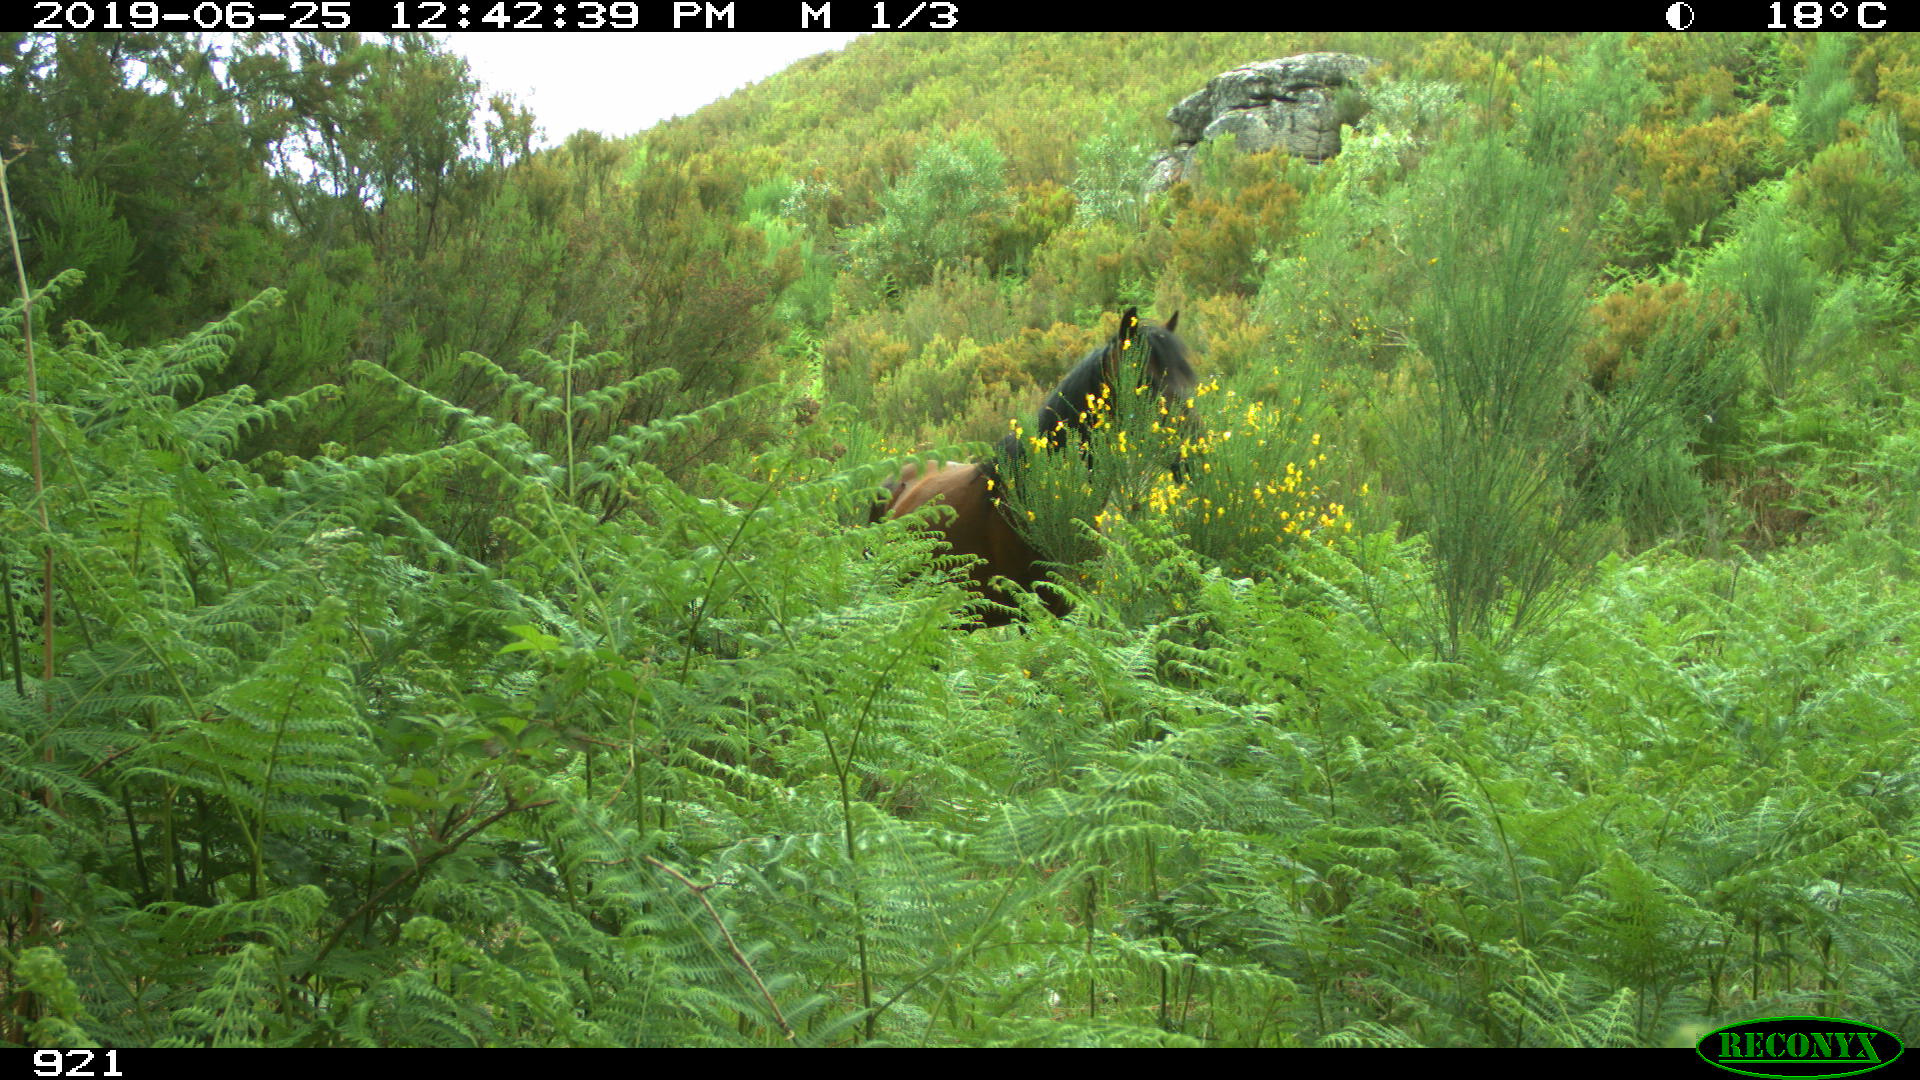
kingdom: Animalia
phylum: Chordata
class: Mammalia
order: Perissodactyla
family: Equidae
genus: Equus
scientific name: Equus caballus
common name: Horse
